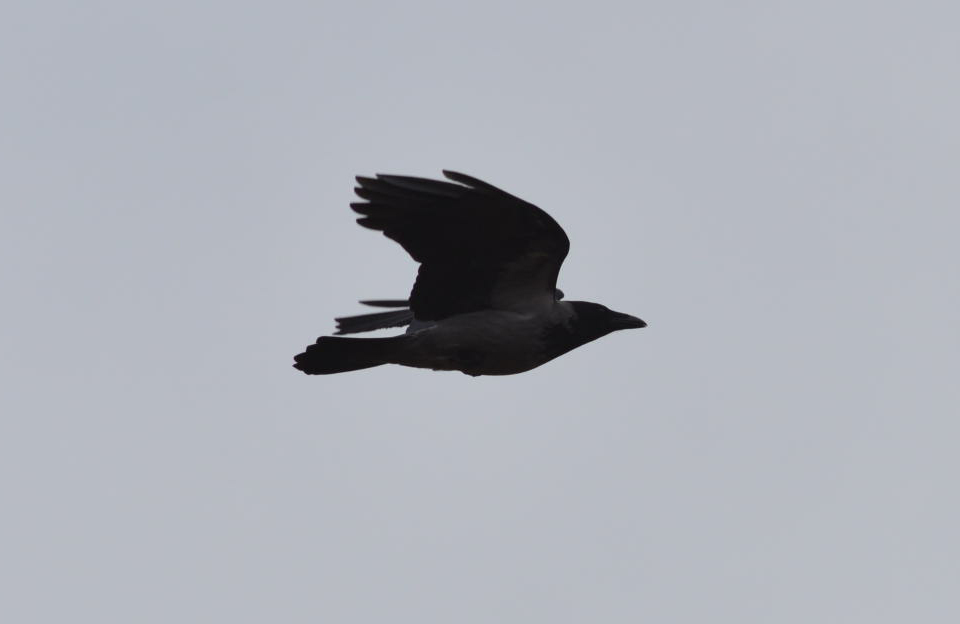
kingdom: Animalia
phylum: Chordata
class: Aves
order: Passeriformes
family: Corvidae
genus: Corvus
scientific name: Corvus cornix
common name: Hooded crow
